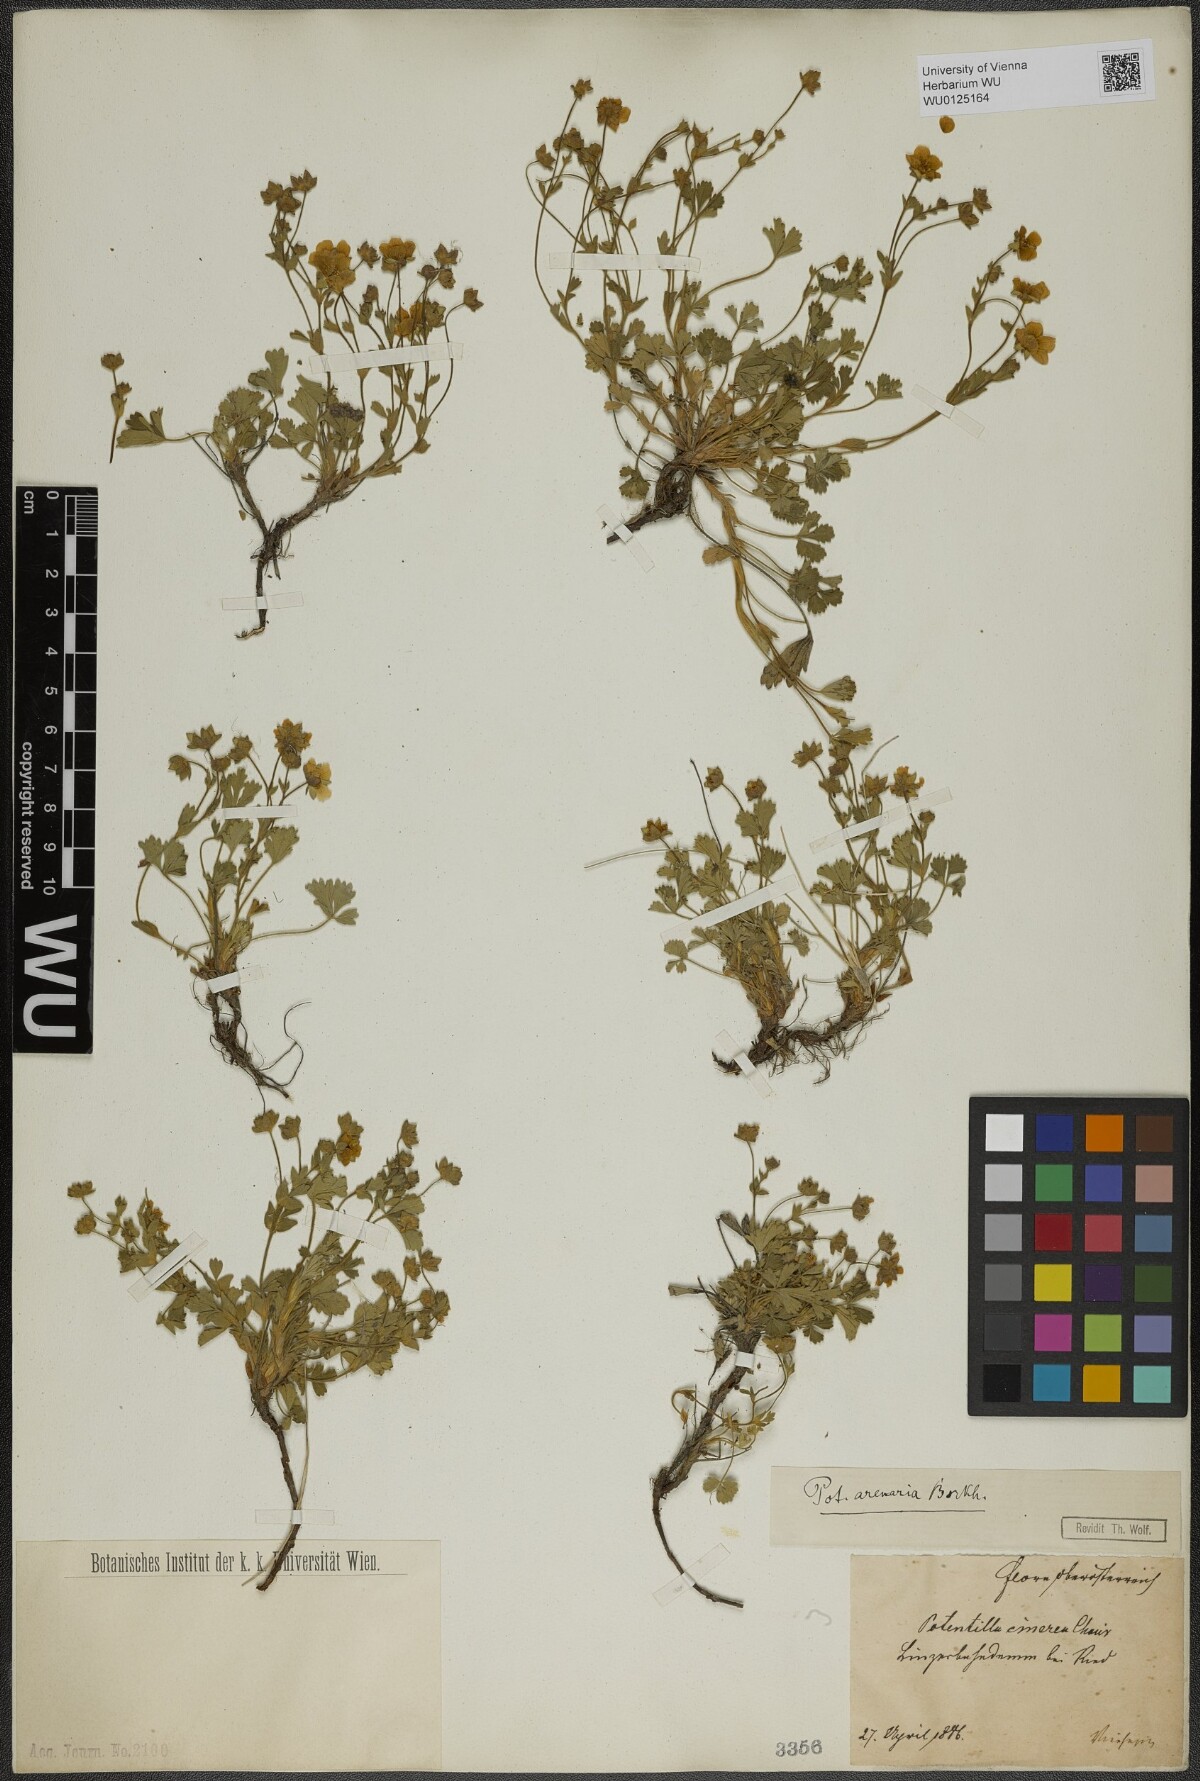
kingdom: Plantae
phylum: Tracheophyta
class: Magnoliopsida
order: Rosales
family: Rosaceae
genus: Potentilla
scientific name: Potentilla cinerea
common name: Ashy cinquefoil
